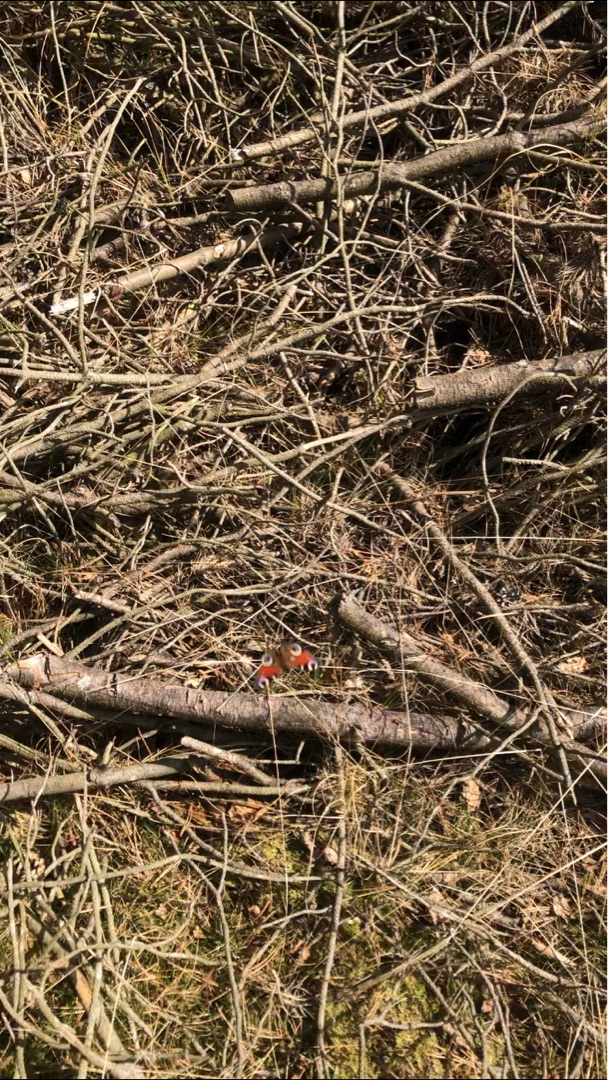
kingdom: Animalia
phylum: Arthropoda
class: Insecta
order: Lepidoptera
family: Nymphalidae
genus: Aglais
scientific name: Aglais io
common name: Dagpåfugleøje
